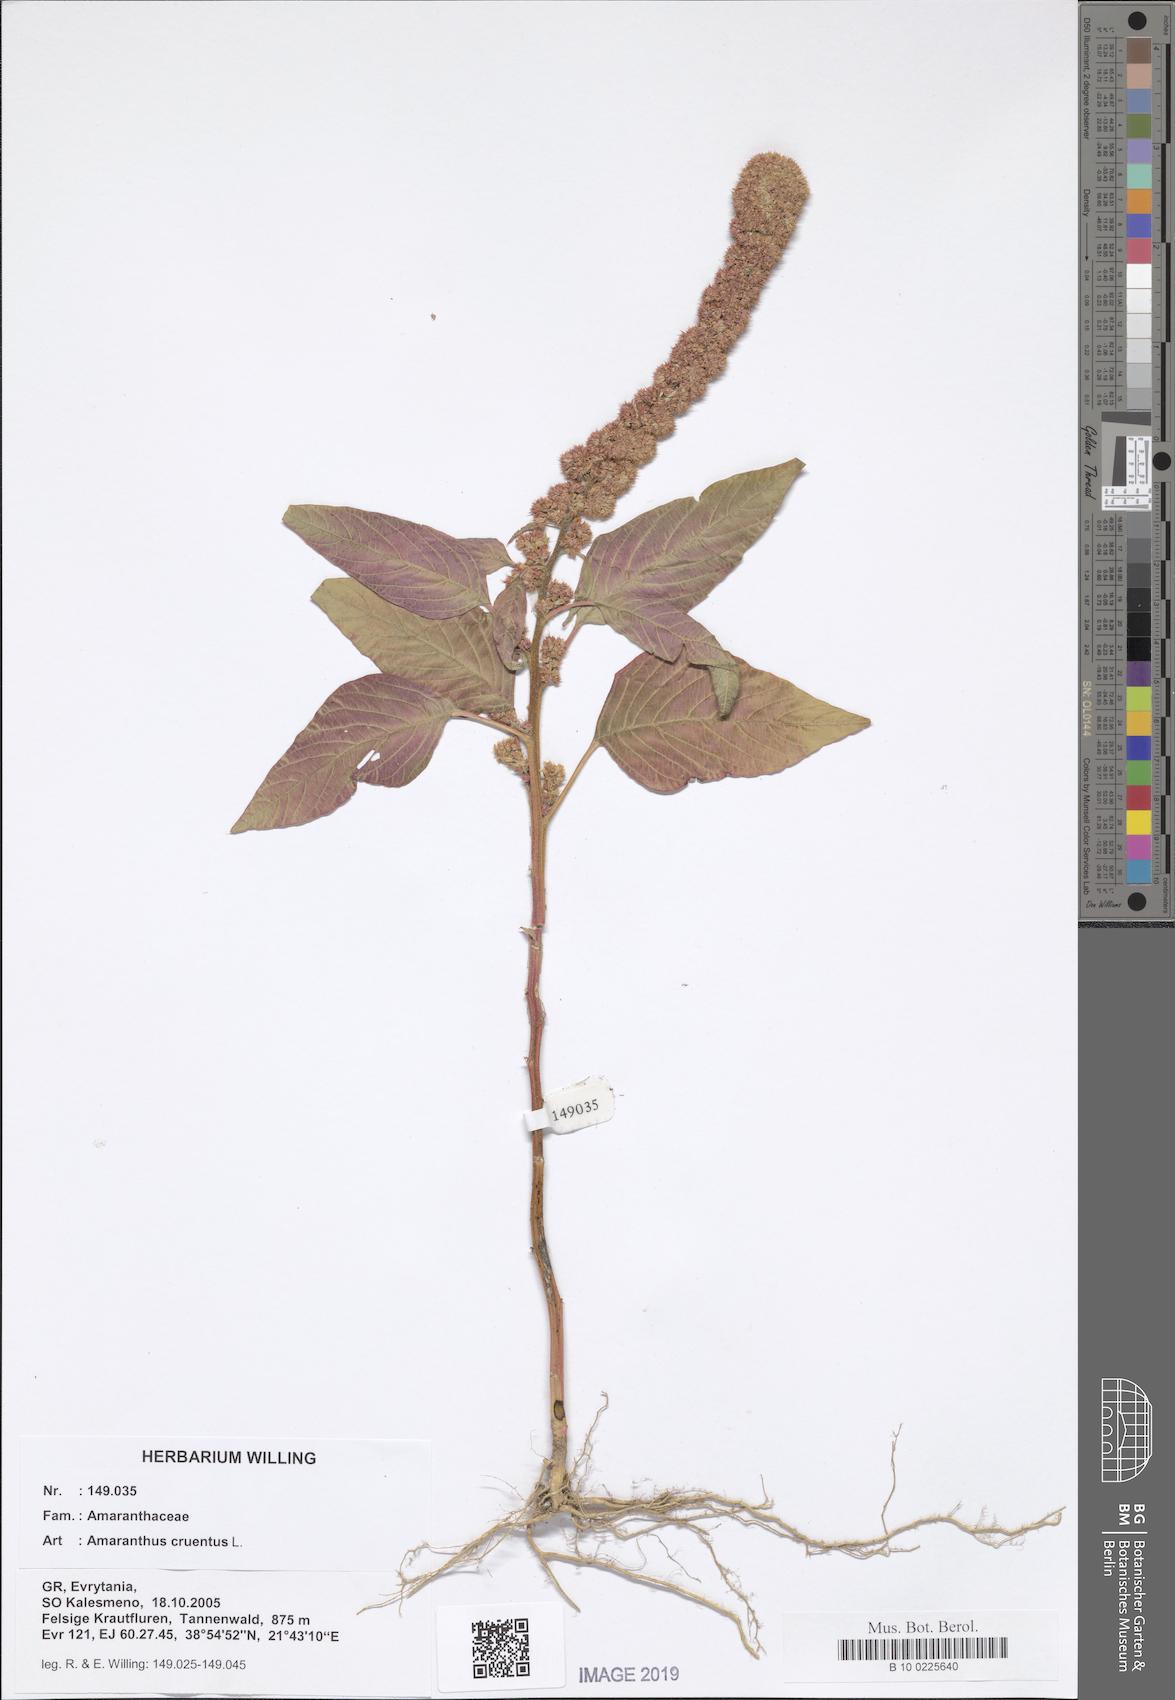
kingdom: Plantae
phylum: Tracheophyta
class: Magnoliopsida
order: Caryophyllales
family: Amaranthaceae
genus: Amaranthus
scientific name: Amaranthus cruentus
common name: Purple amaranth
